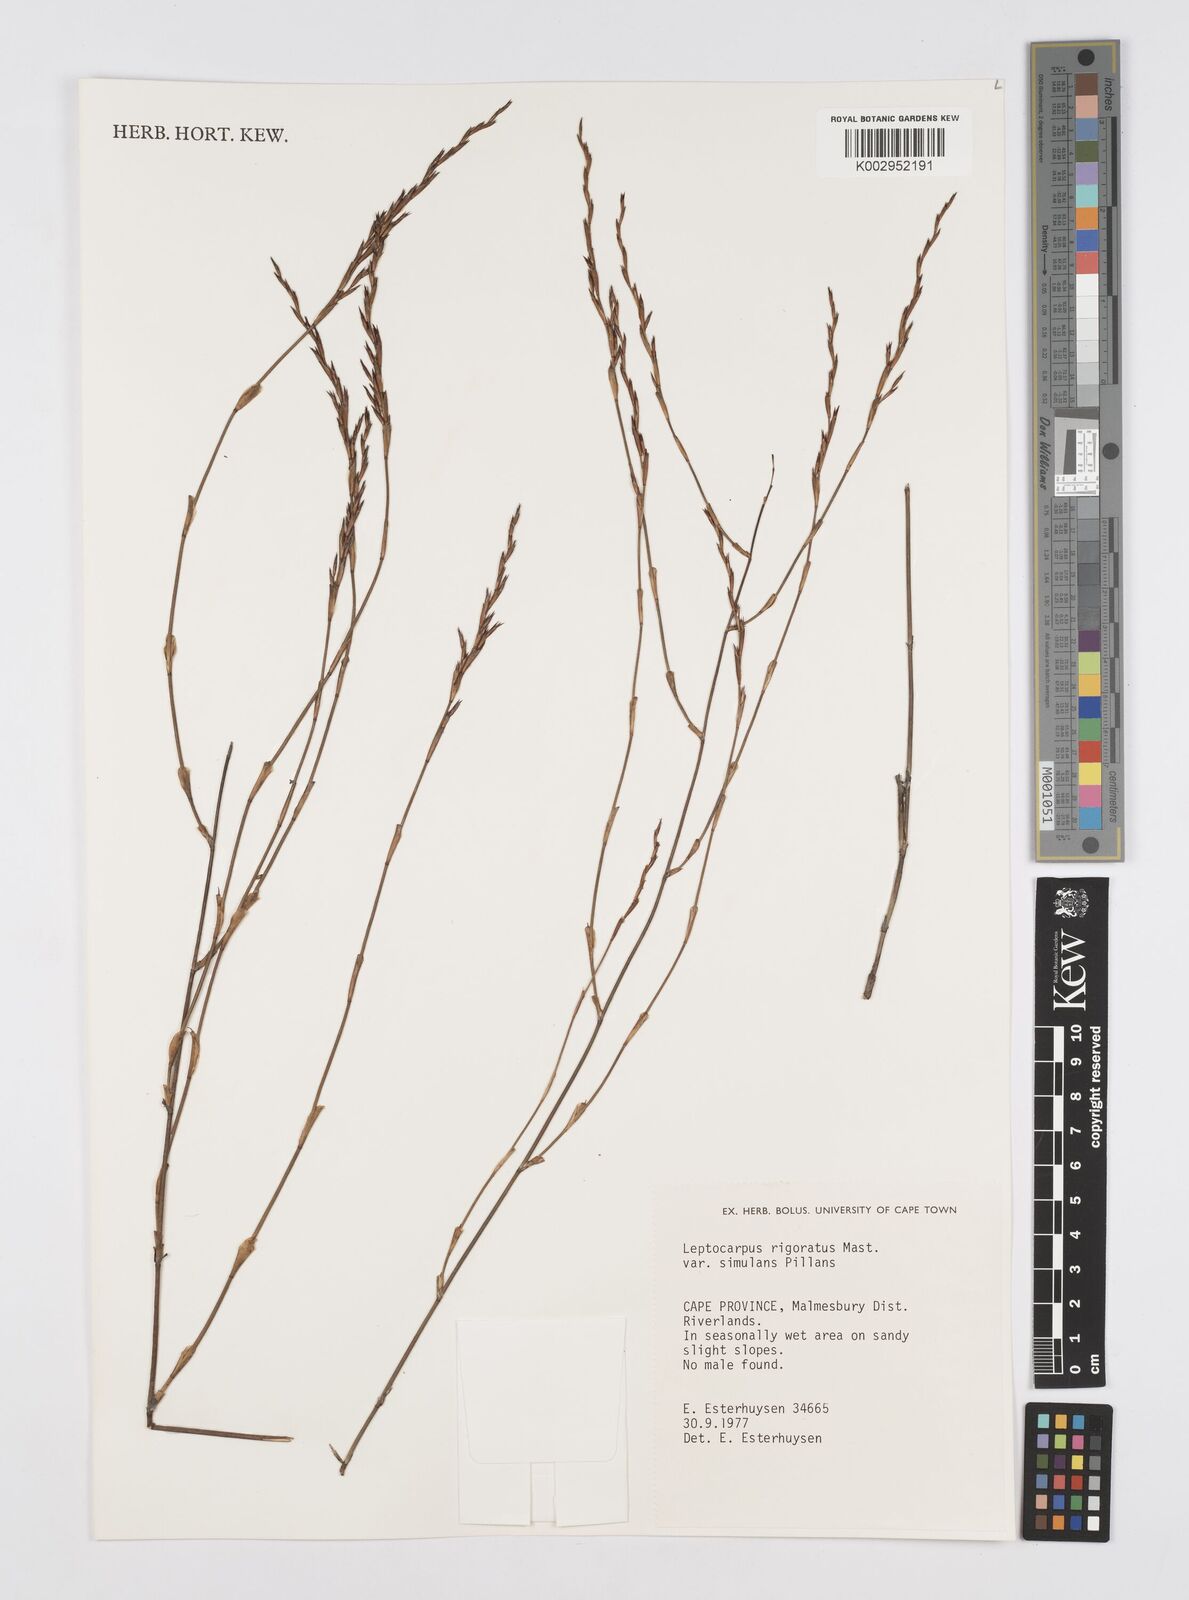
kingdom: Plantae
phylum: Tracheophyta
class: Liliopsida
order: Poales
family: Restionaceae
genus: Restio
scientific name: Restio rigoratus
